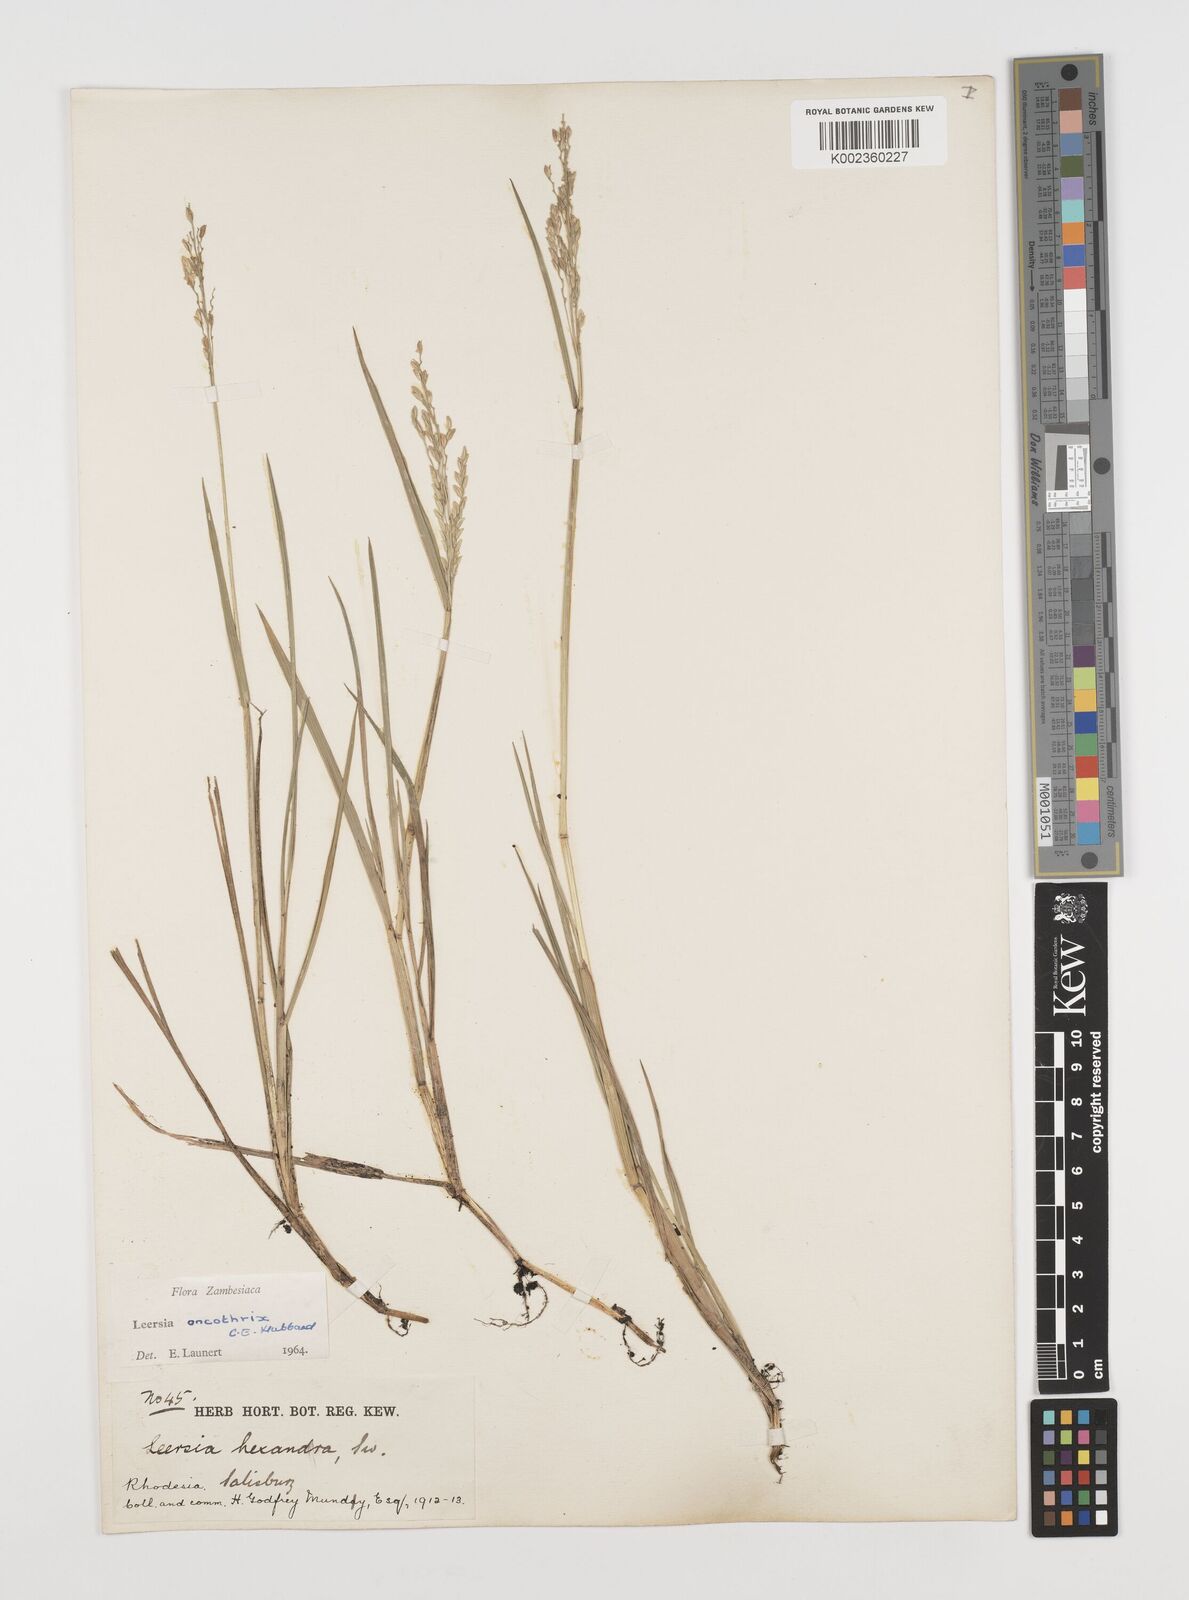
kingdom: Plantae
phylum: Tracheophyta
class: Liliopsida
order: Poales
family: Poaceae
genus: Leersia
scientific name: Leersia oncothrix
